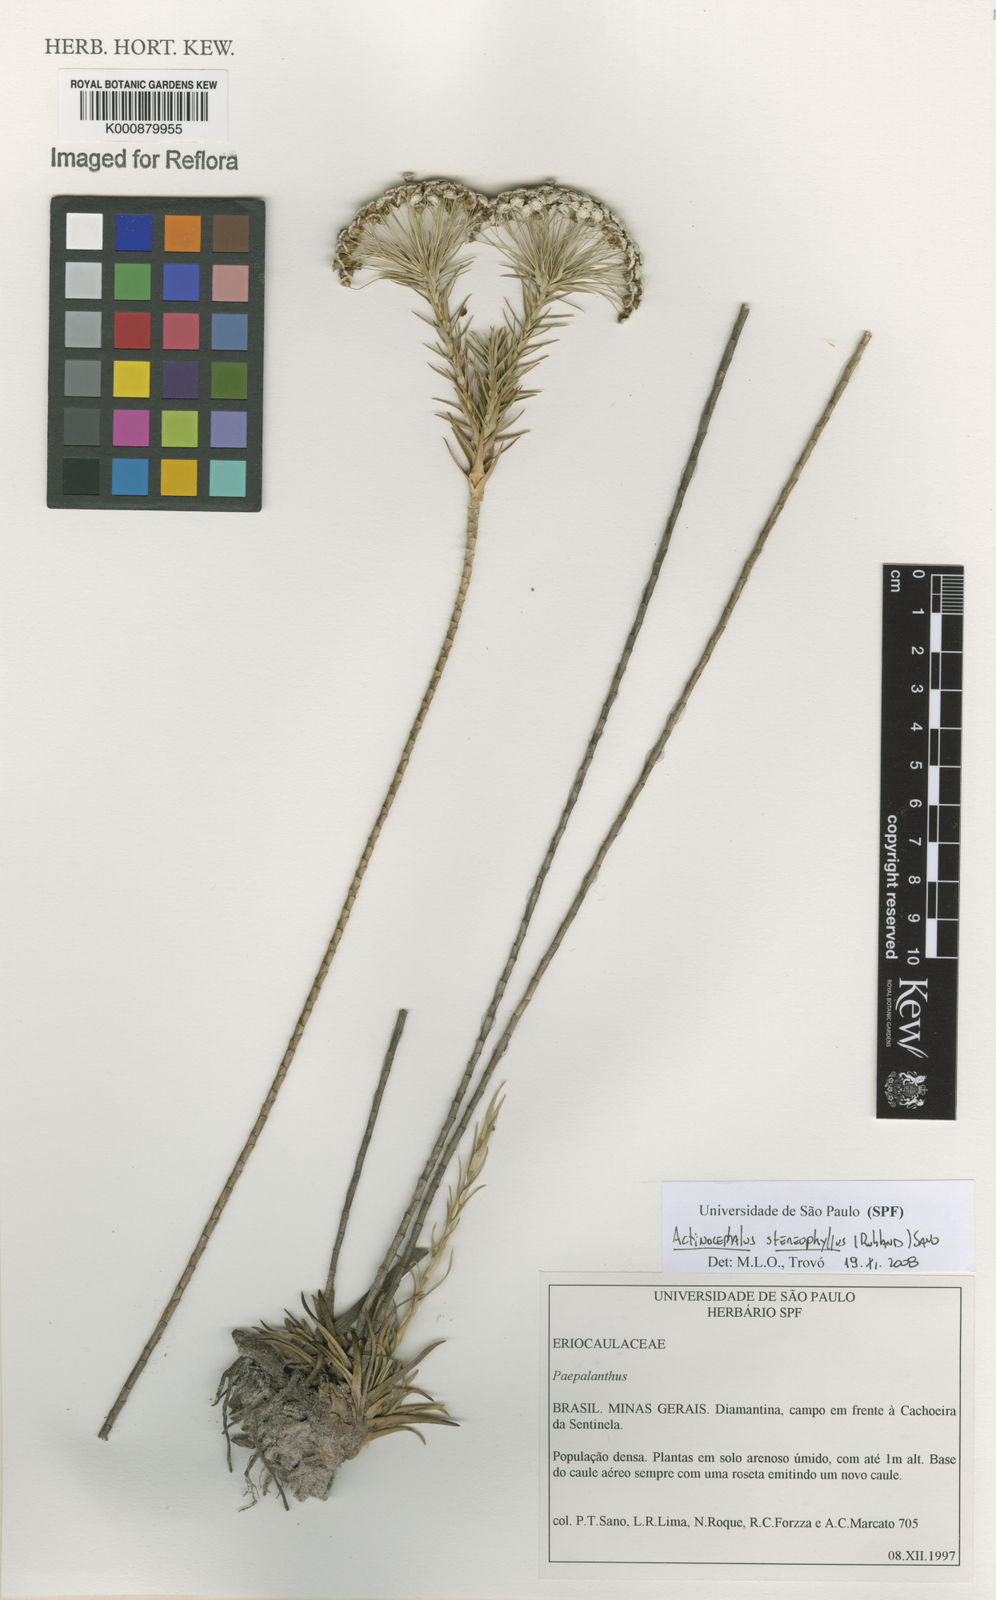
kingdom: Plantae
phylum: Tracheophyta
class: Liliopsida
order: Poales
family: Eriocaulaceae
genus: Paepalanthus
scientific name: Paepalanthus stereophyllus
